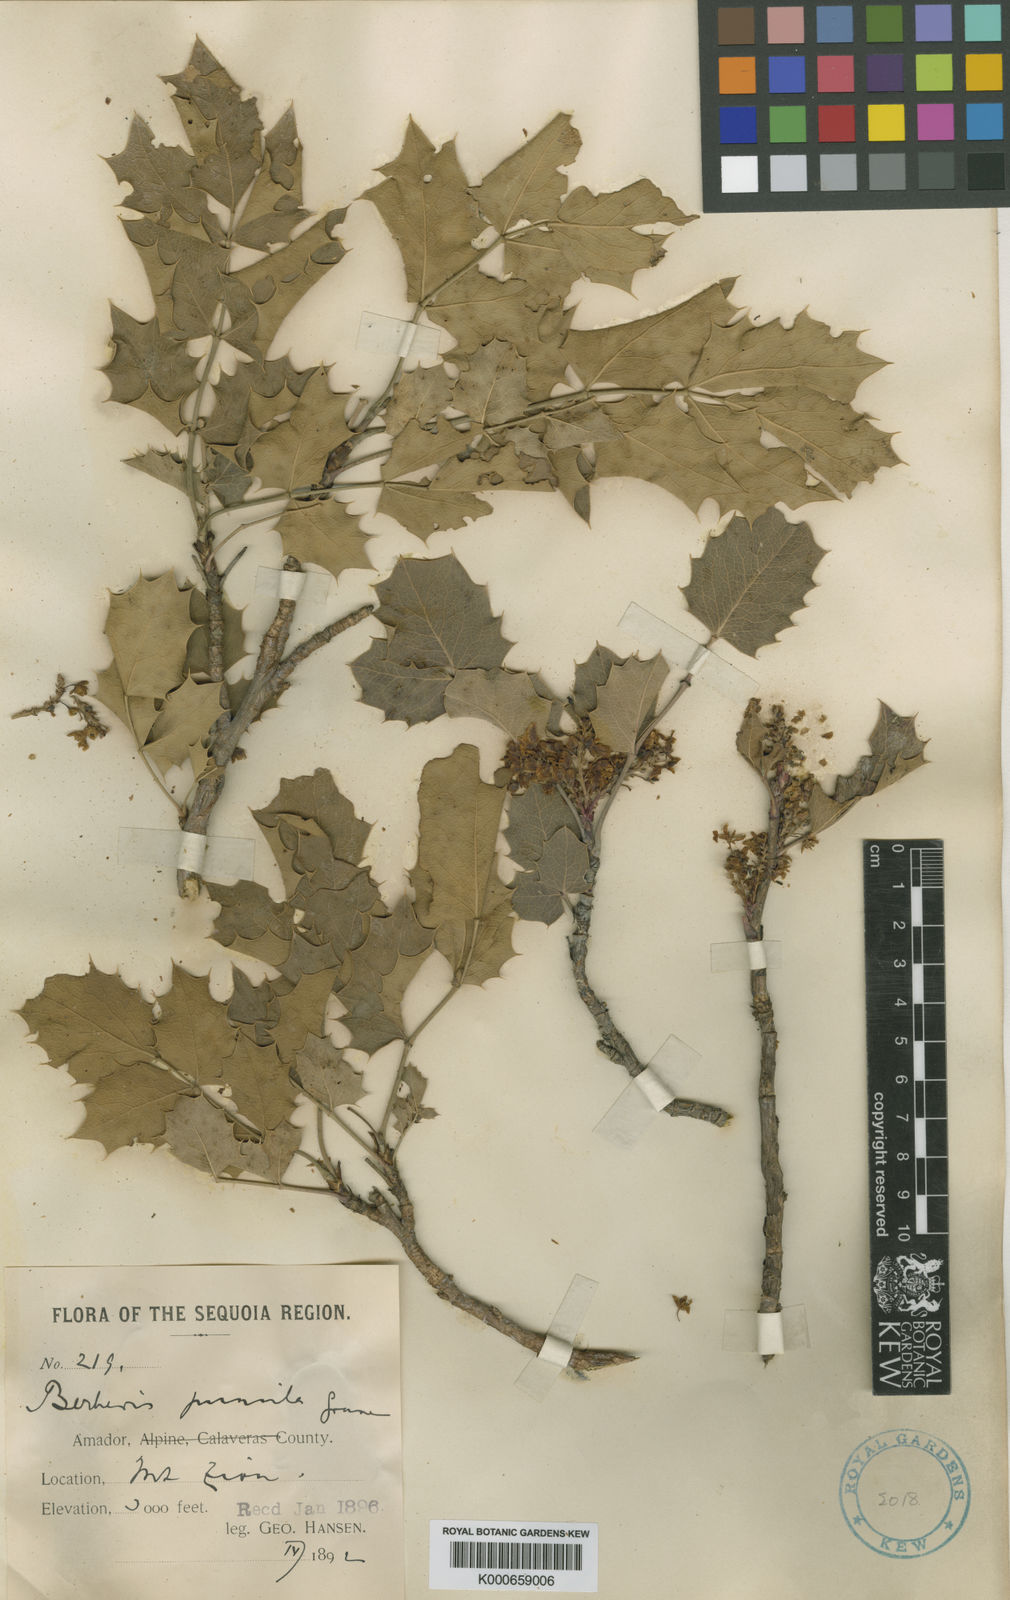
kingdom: Plantae
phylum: Tracheophyta
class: Magnoliopsida
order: Ranunculales
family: Berberidaceae
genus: Mahonia
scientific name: Mahonia repens
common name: Creeping oregon-grape
